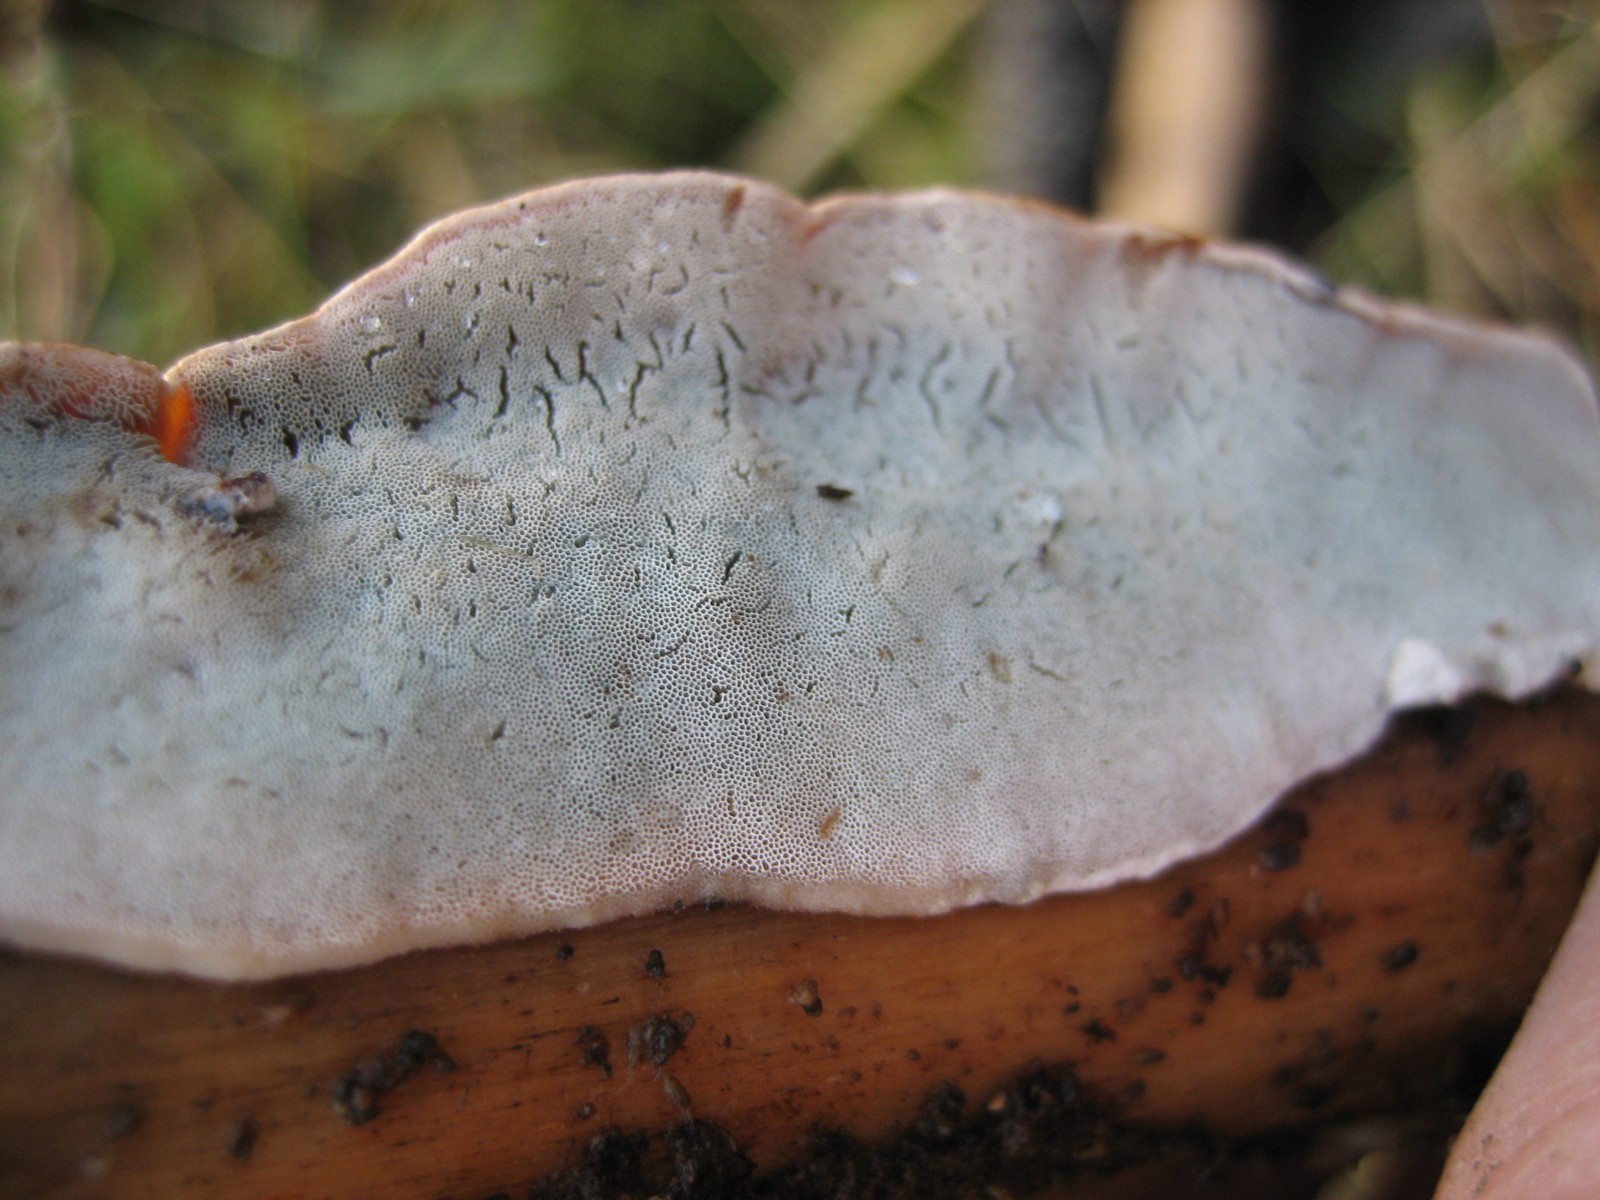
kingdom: Fungi
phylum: Basidiomycota
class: Agaricomycetes
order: Polyporales
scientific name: Polyporales
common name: poresvampordenen
